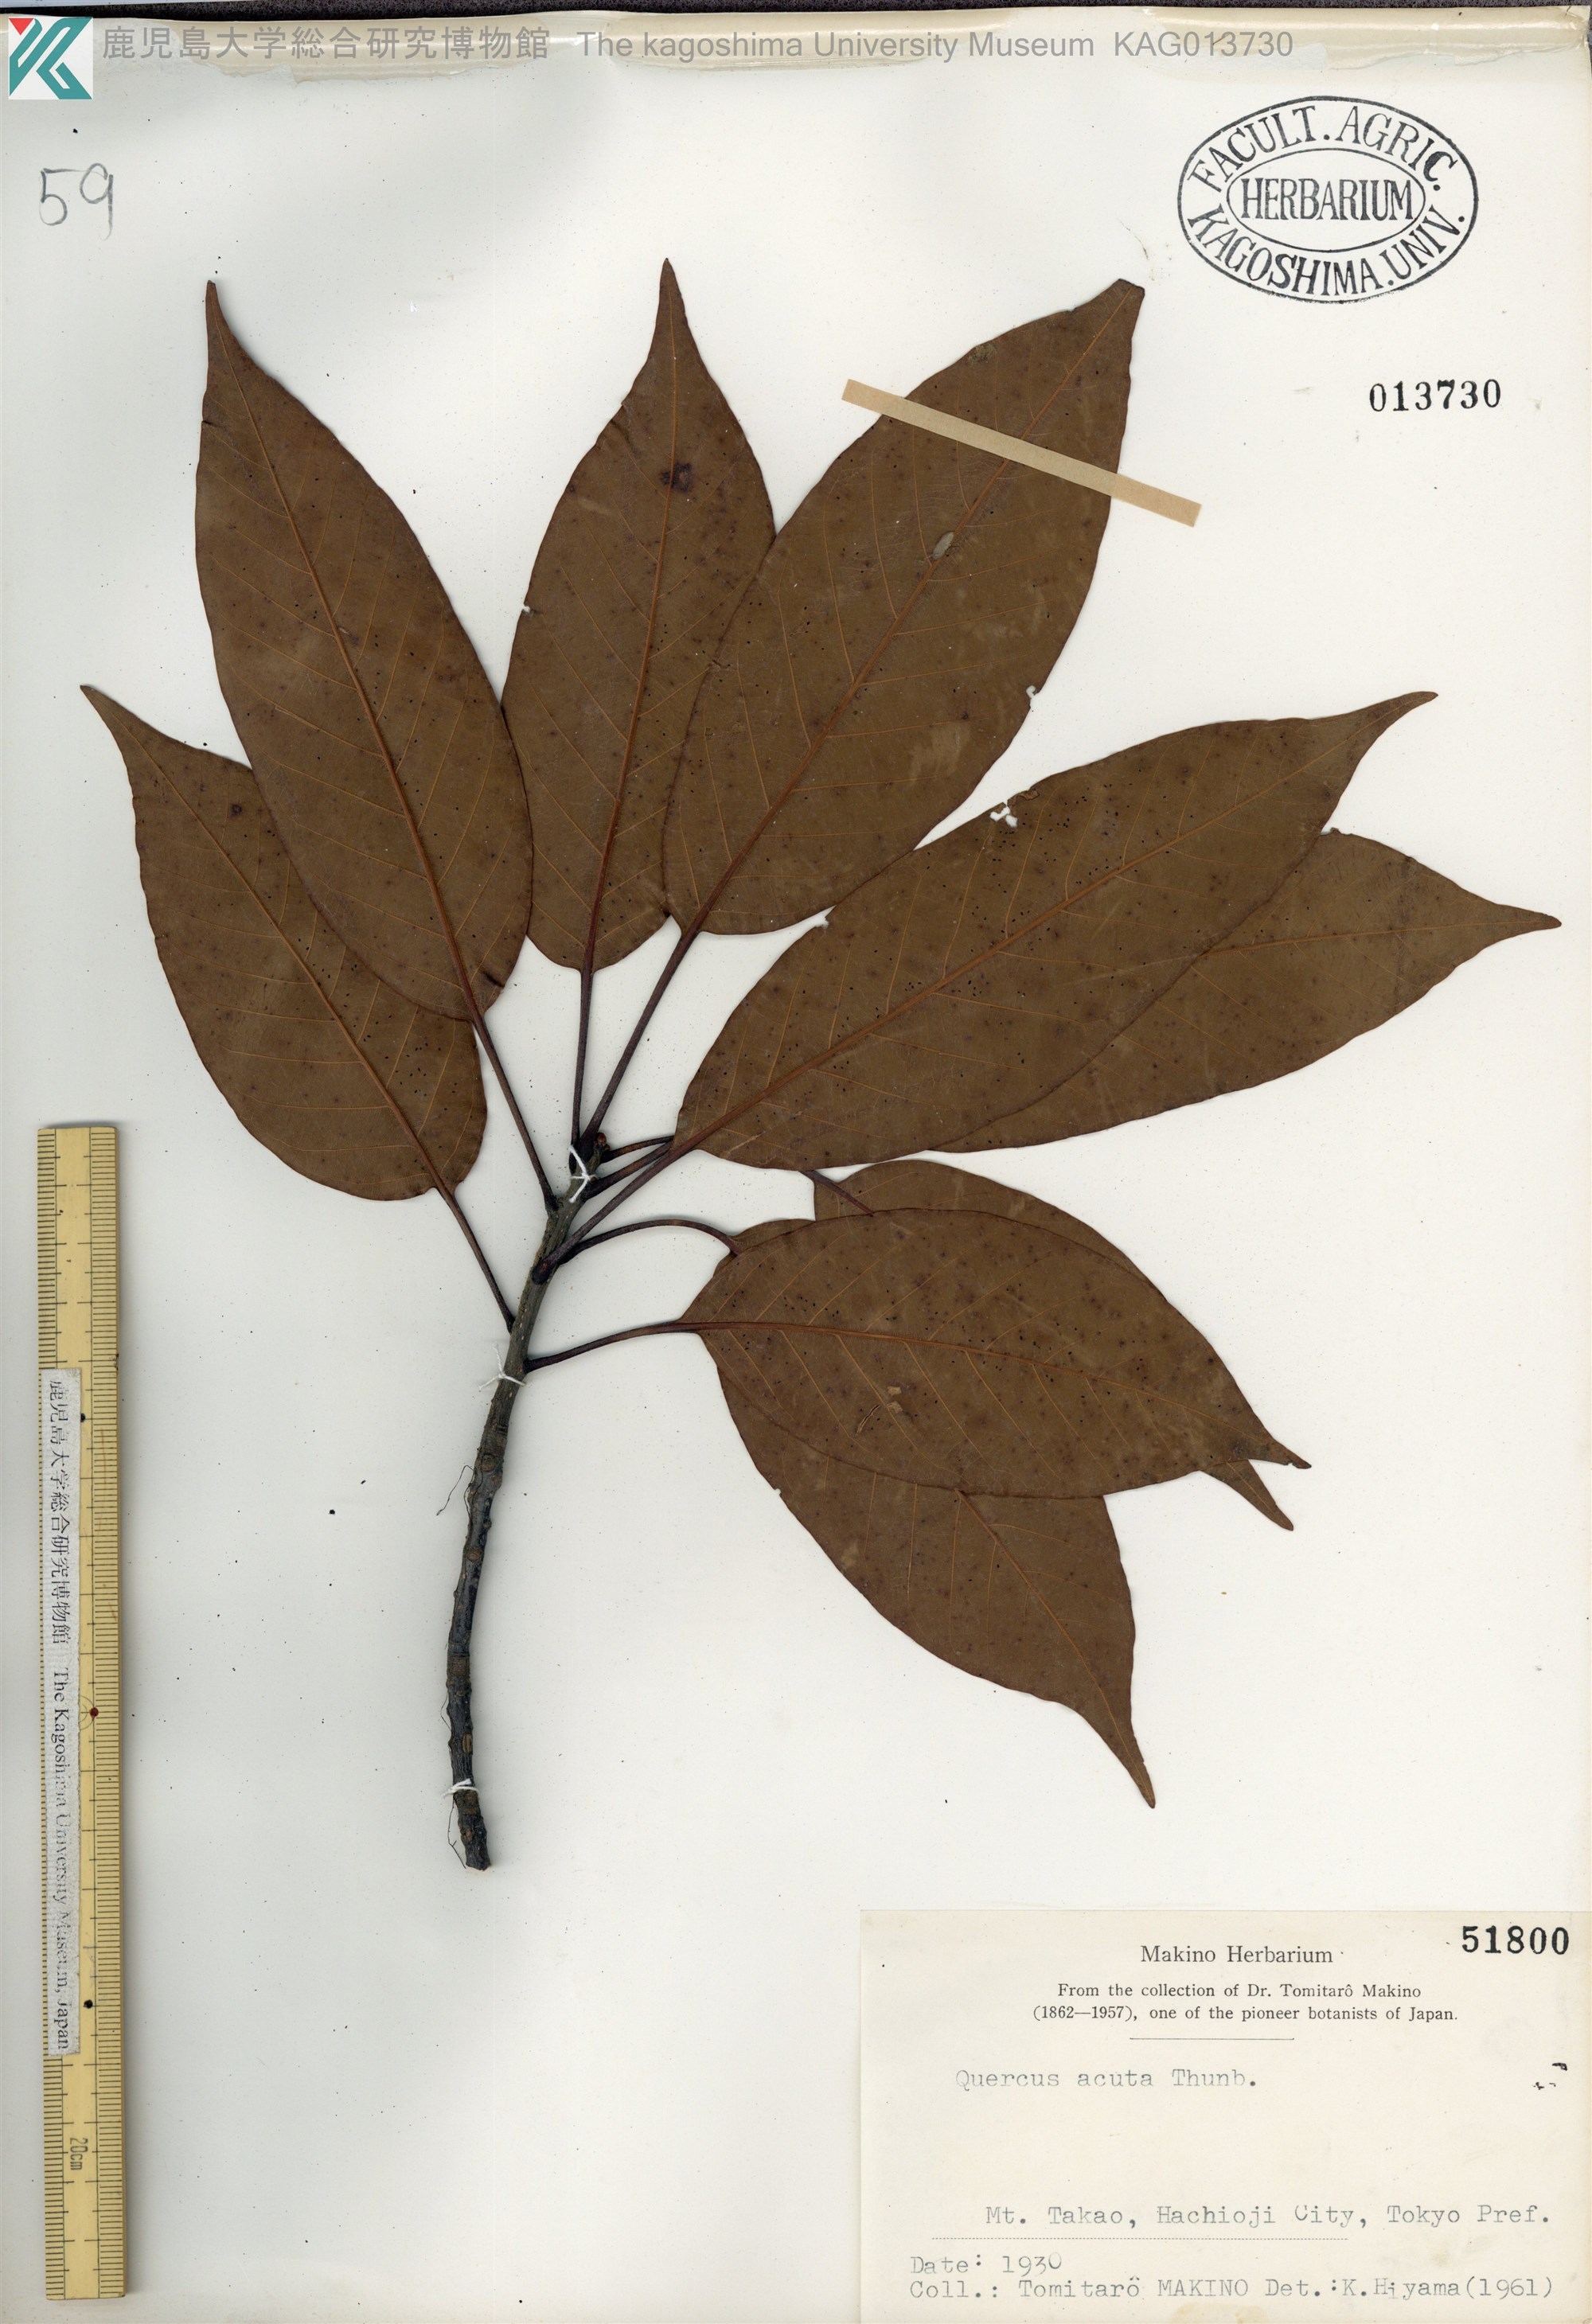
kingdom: Plantae
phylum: Tracheophyta
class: Magnoliopsida
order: Fagales
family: Fagaceae
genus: Quercus
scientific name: Quercus acuta
